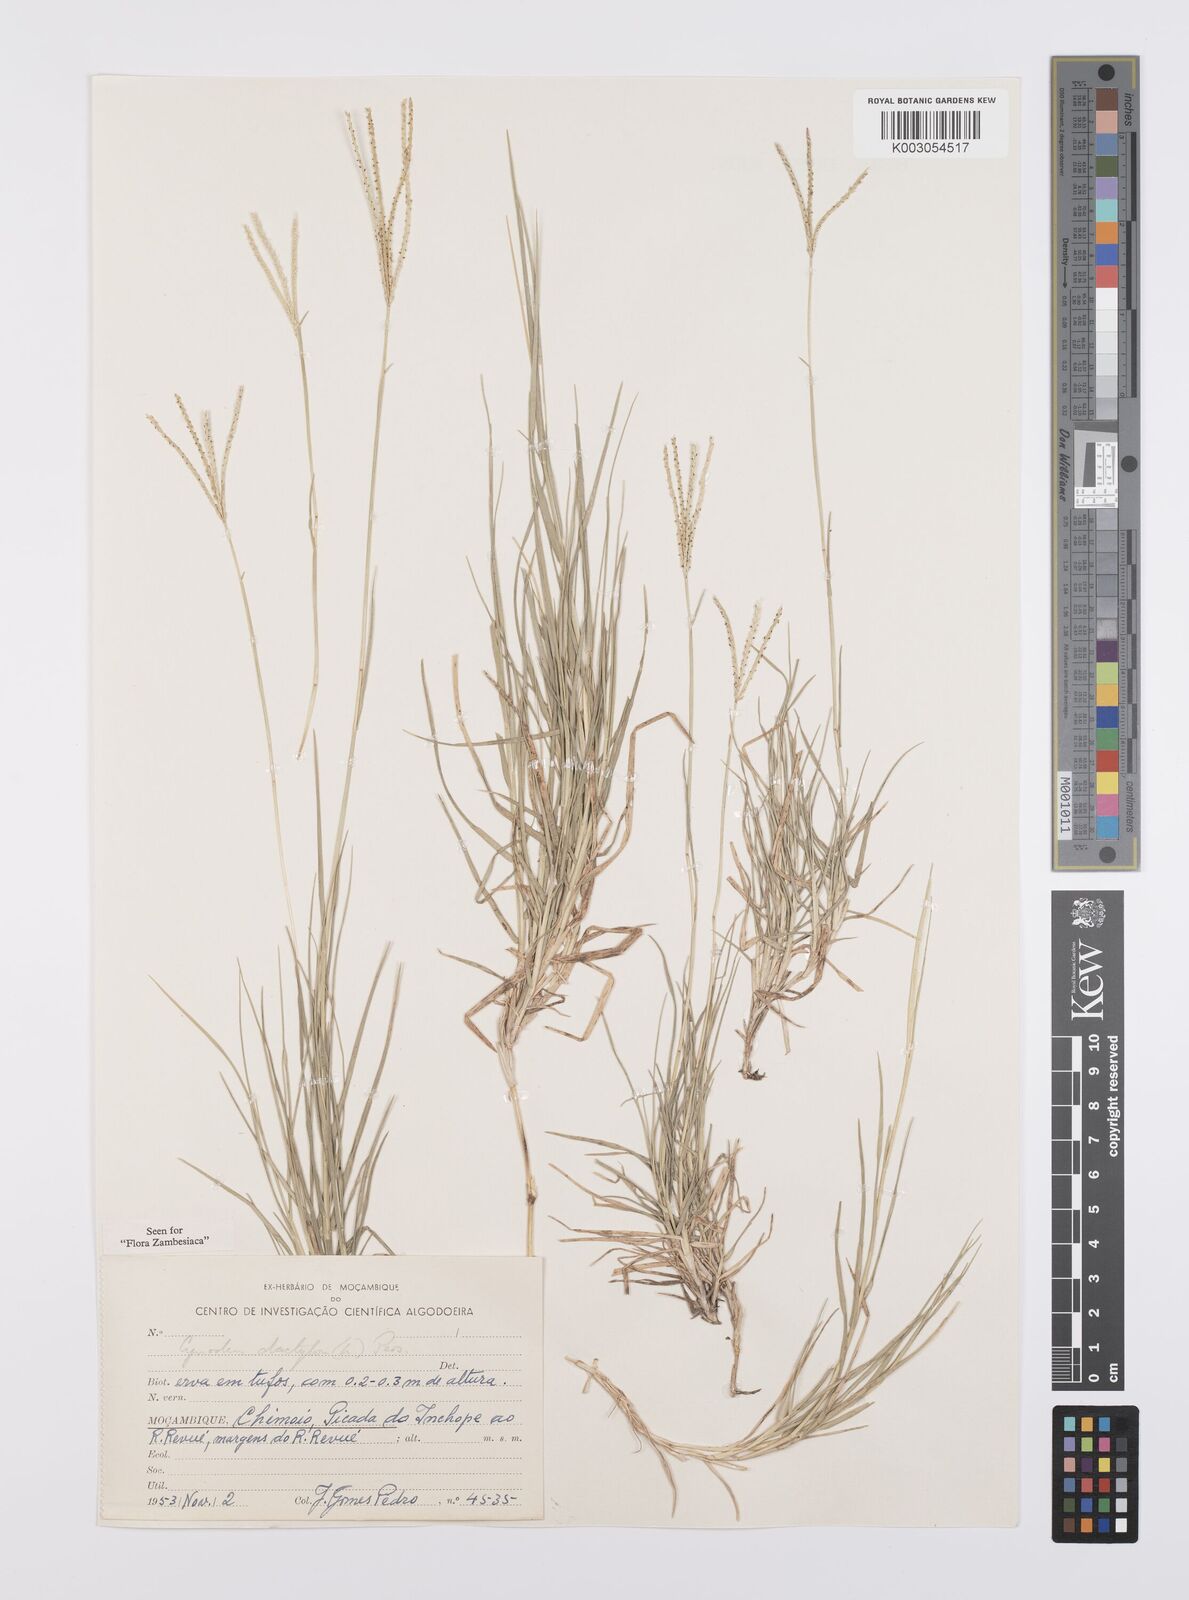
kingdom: Plantae
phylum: Tracheophyta
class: Liliopsida
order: Poales
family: Poaceae
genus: Cynodon
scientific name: Cynodon dactylon
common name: Bermuda grass
